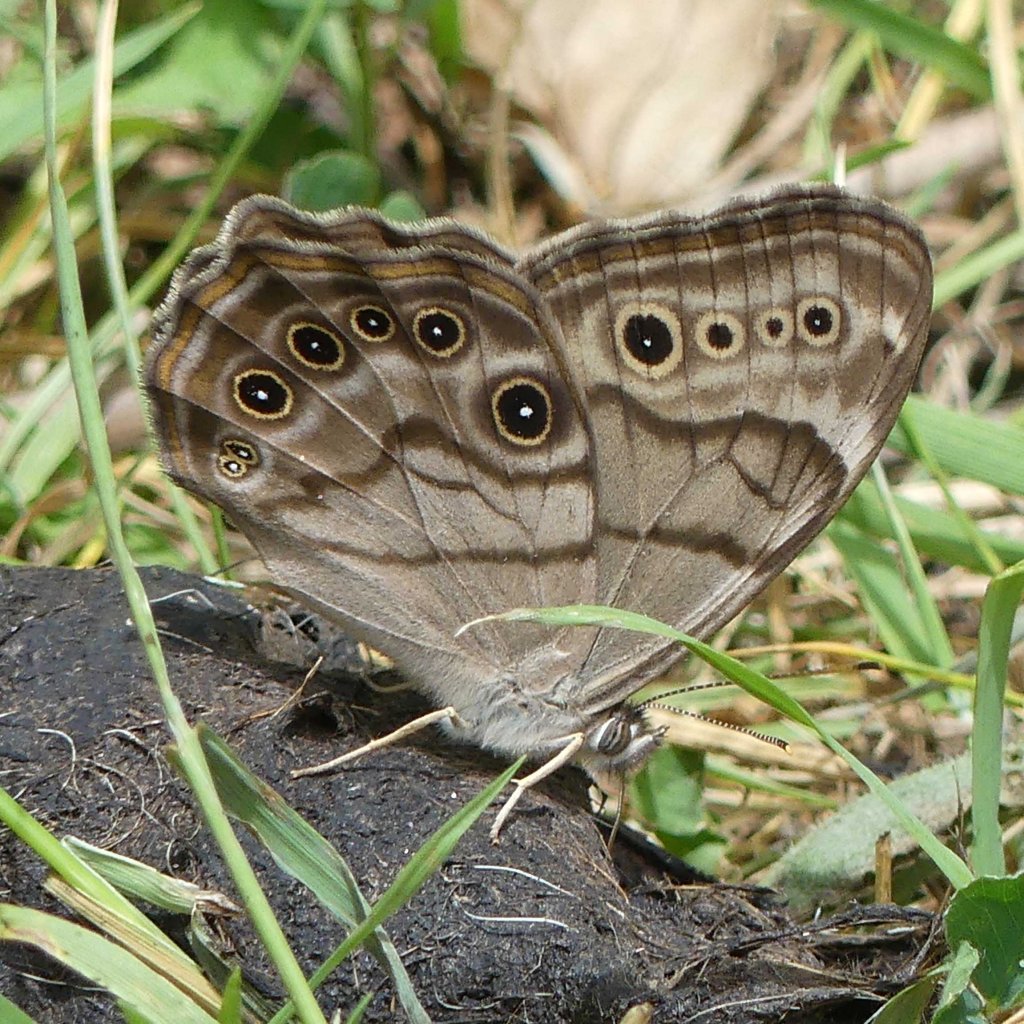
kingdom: Animalia
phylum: Arthropoda
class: Insecta
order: Lepidoptera
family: Nymphalidae
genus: Lethe
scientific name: Lethe anthedon
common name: Northern Pearly-Eye
